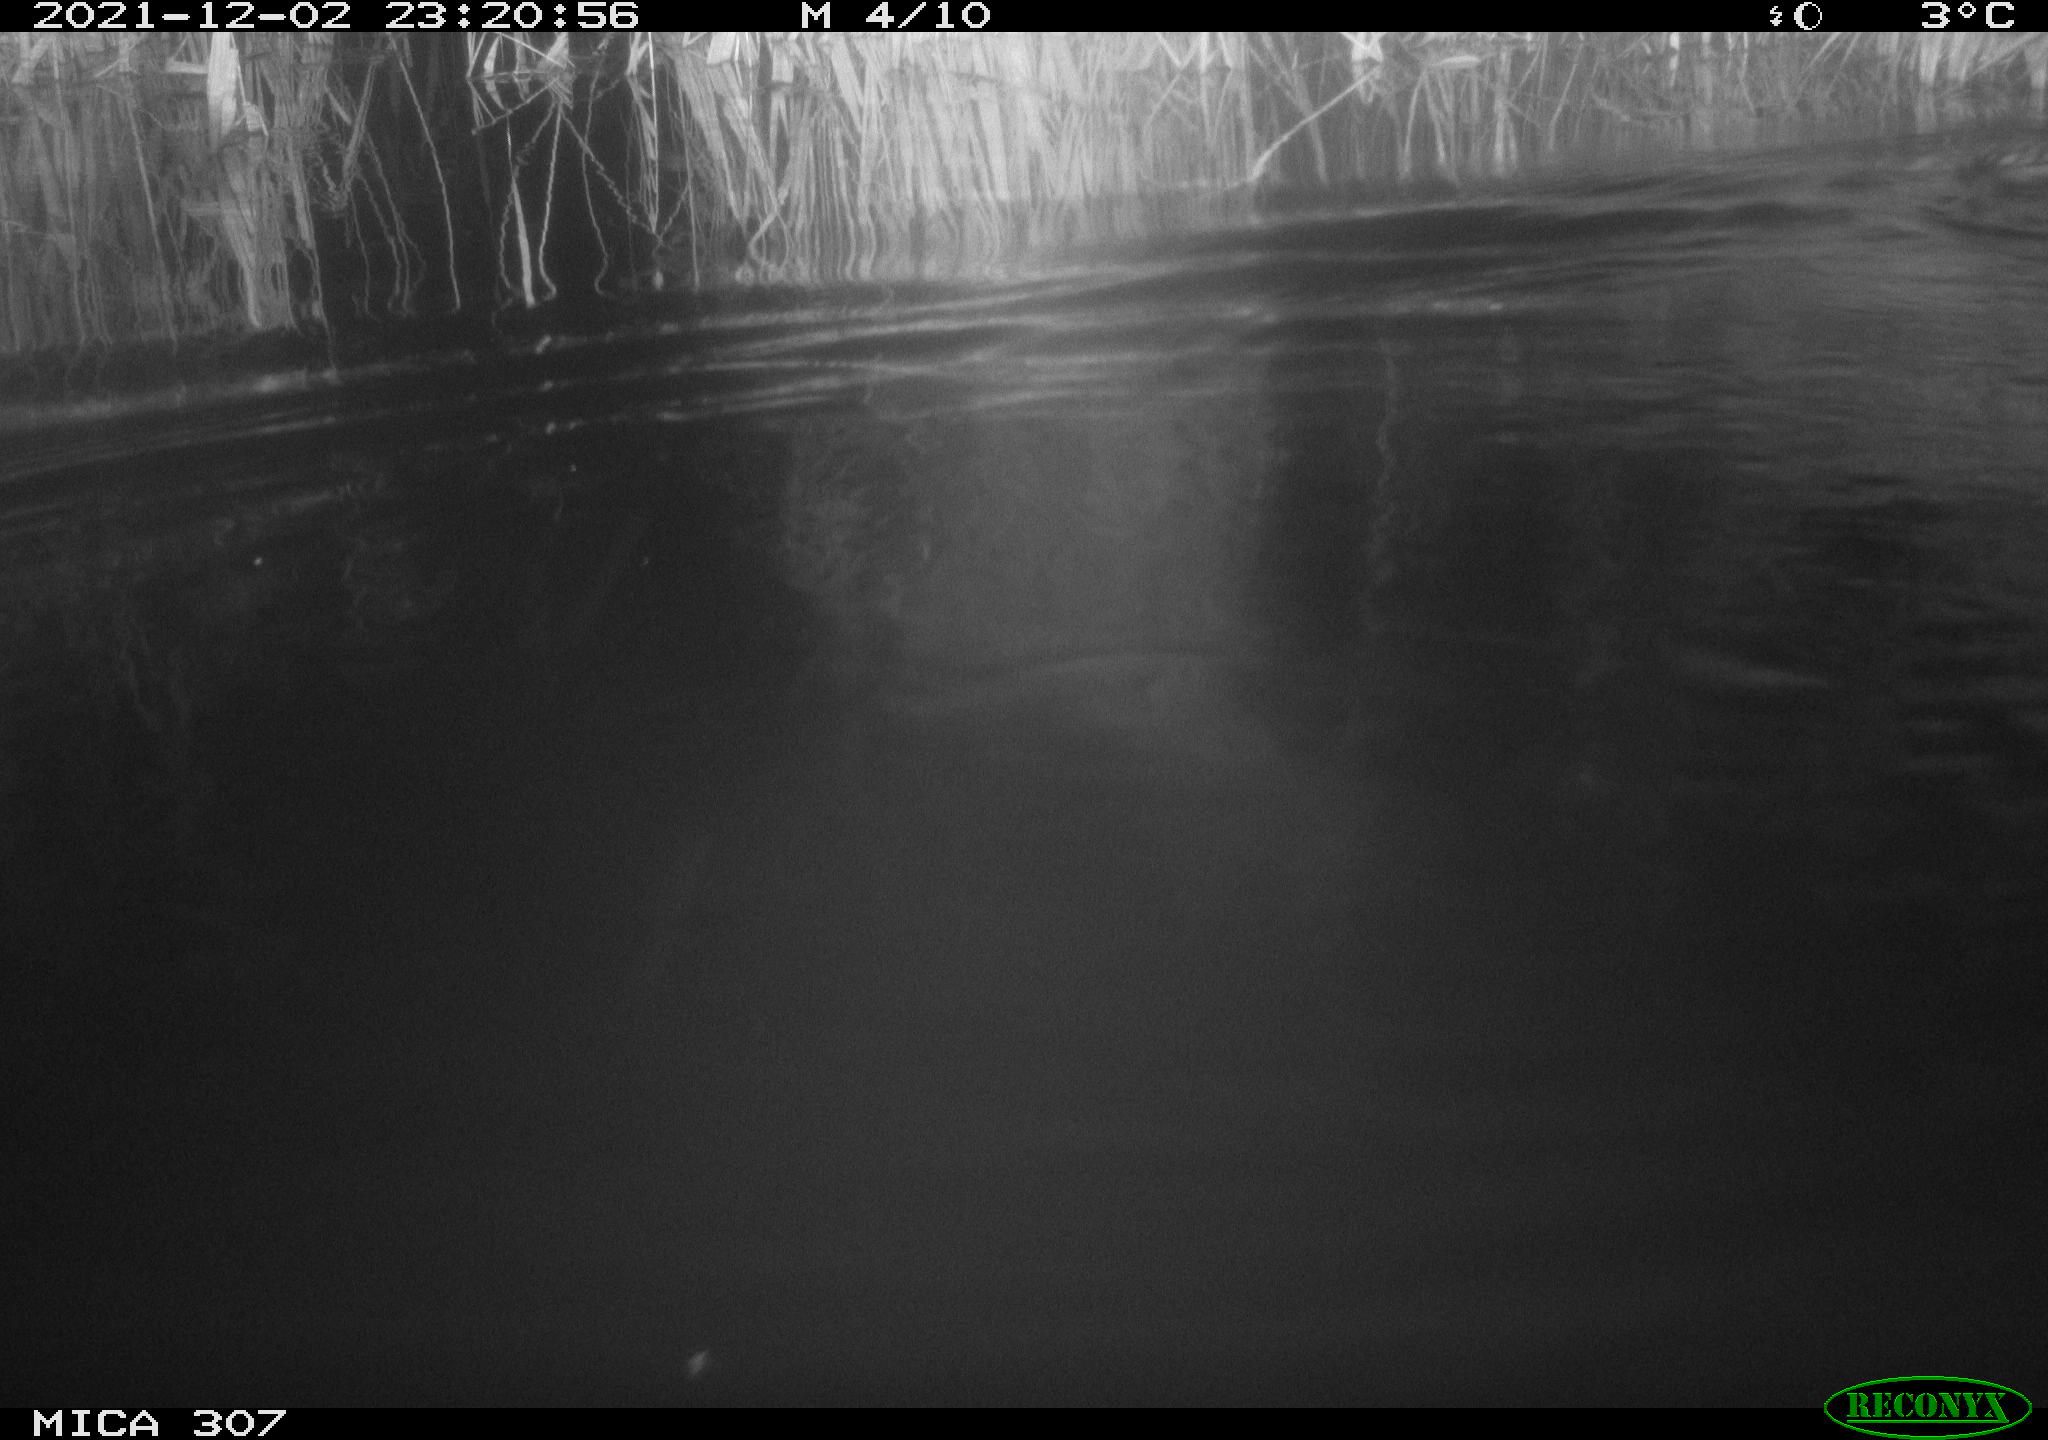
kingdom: Animalia
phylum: Chordata
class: Mammalia
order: Rodentia
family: Cricetidae
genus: Ondatra
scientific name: Ondatra zibethicus
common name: Muskrat
